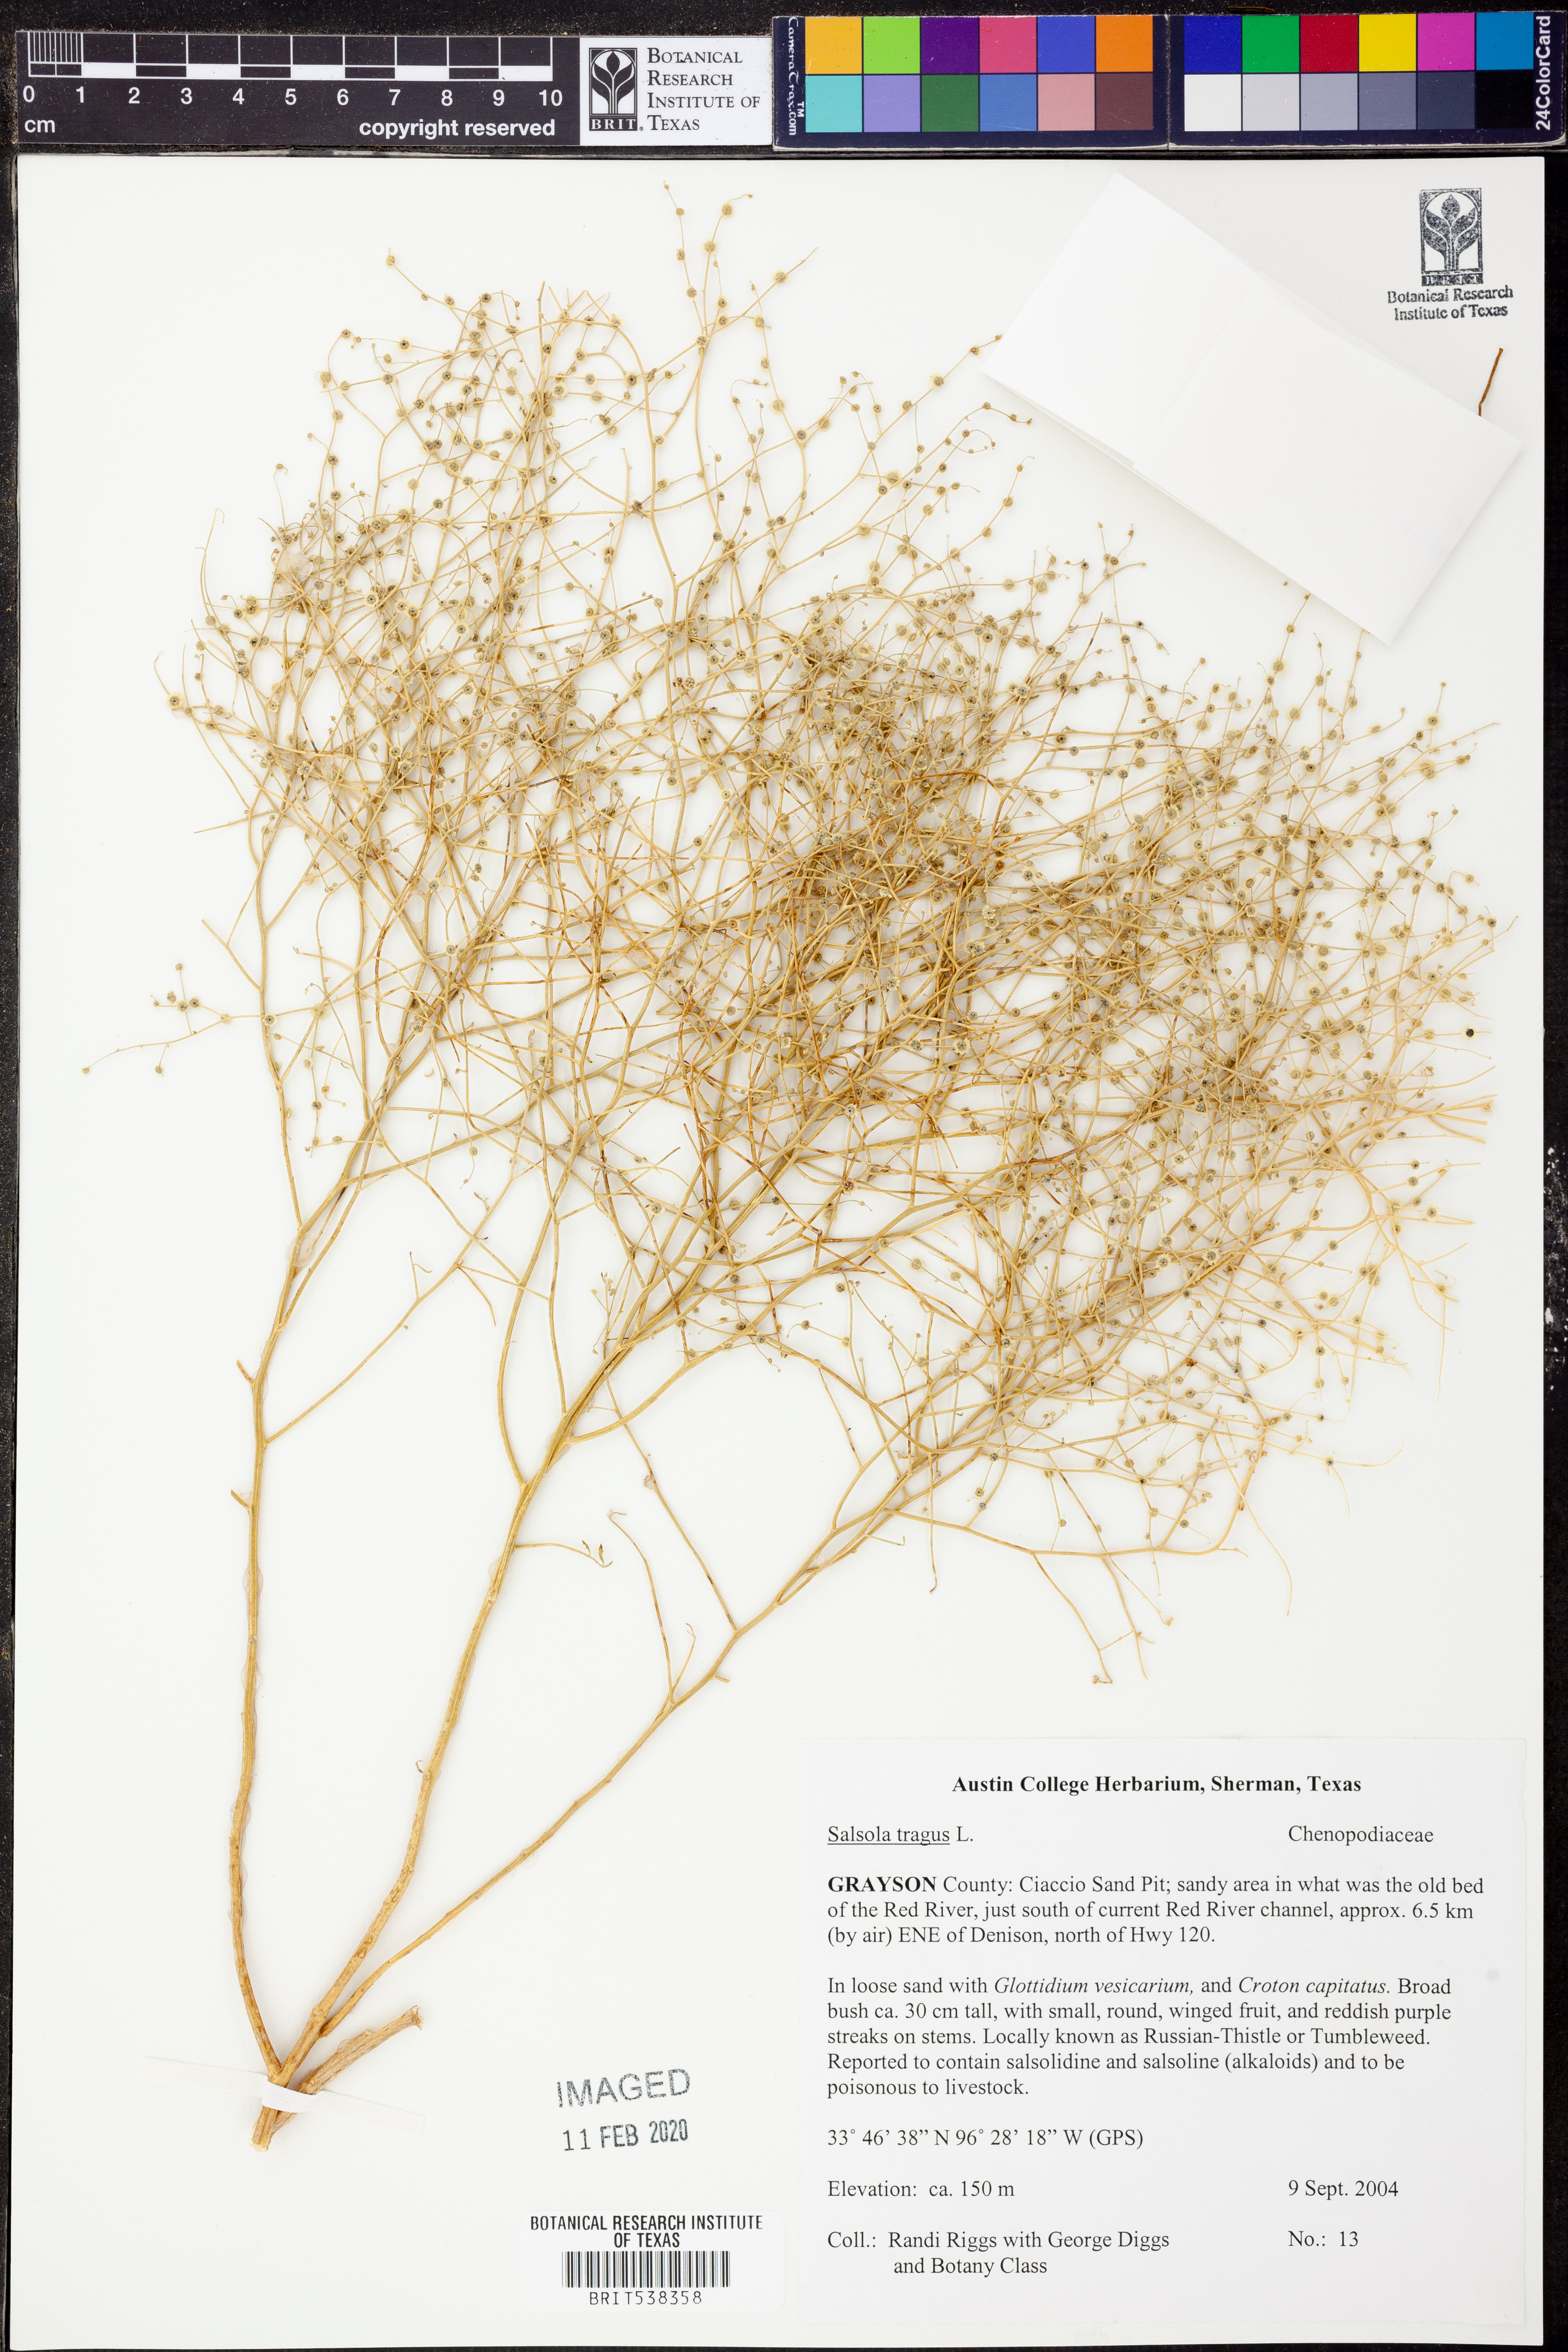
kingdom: Plantae
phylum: Tracheophyta
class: Magnoliopsida
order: Caryophyllales
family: Amaranthaceae
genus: Dysphania
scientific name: Dysphania atriplicifolia
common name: Plains tumbleweed
